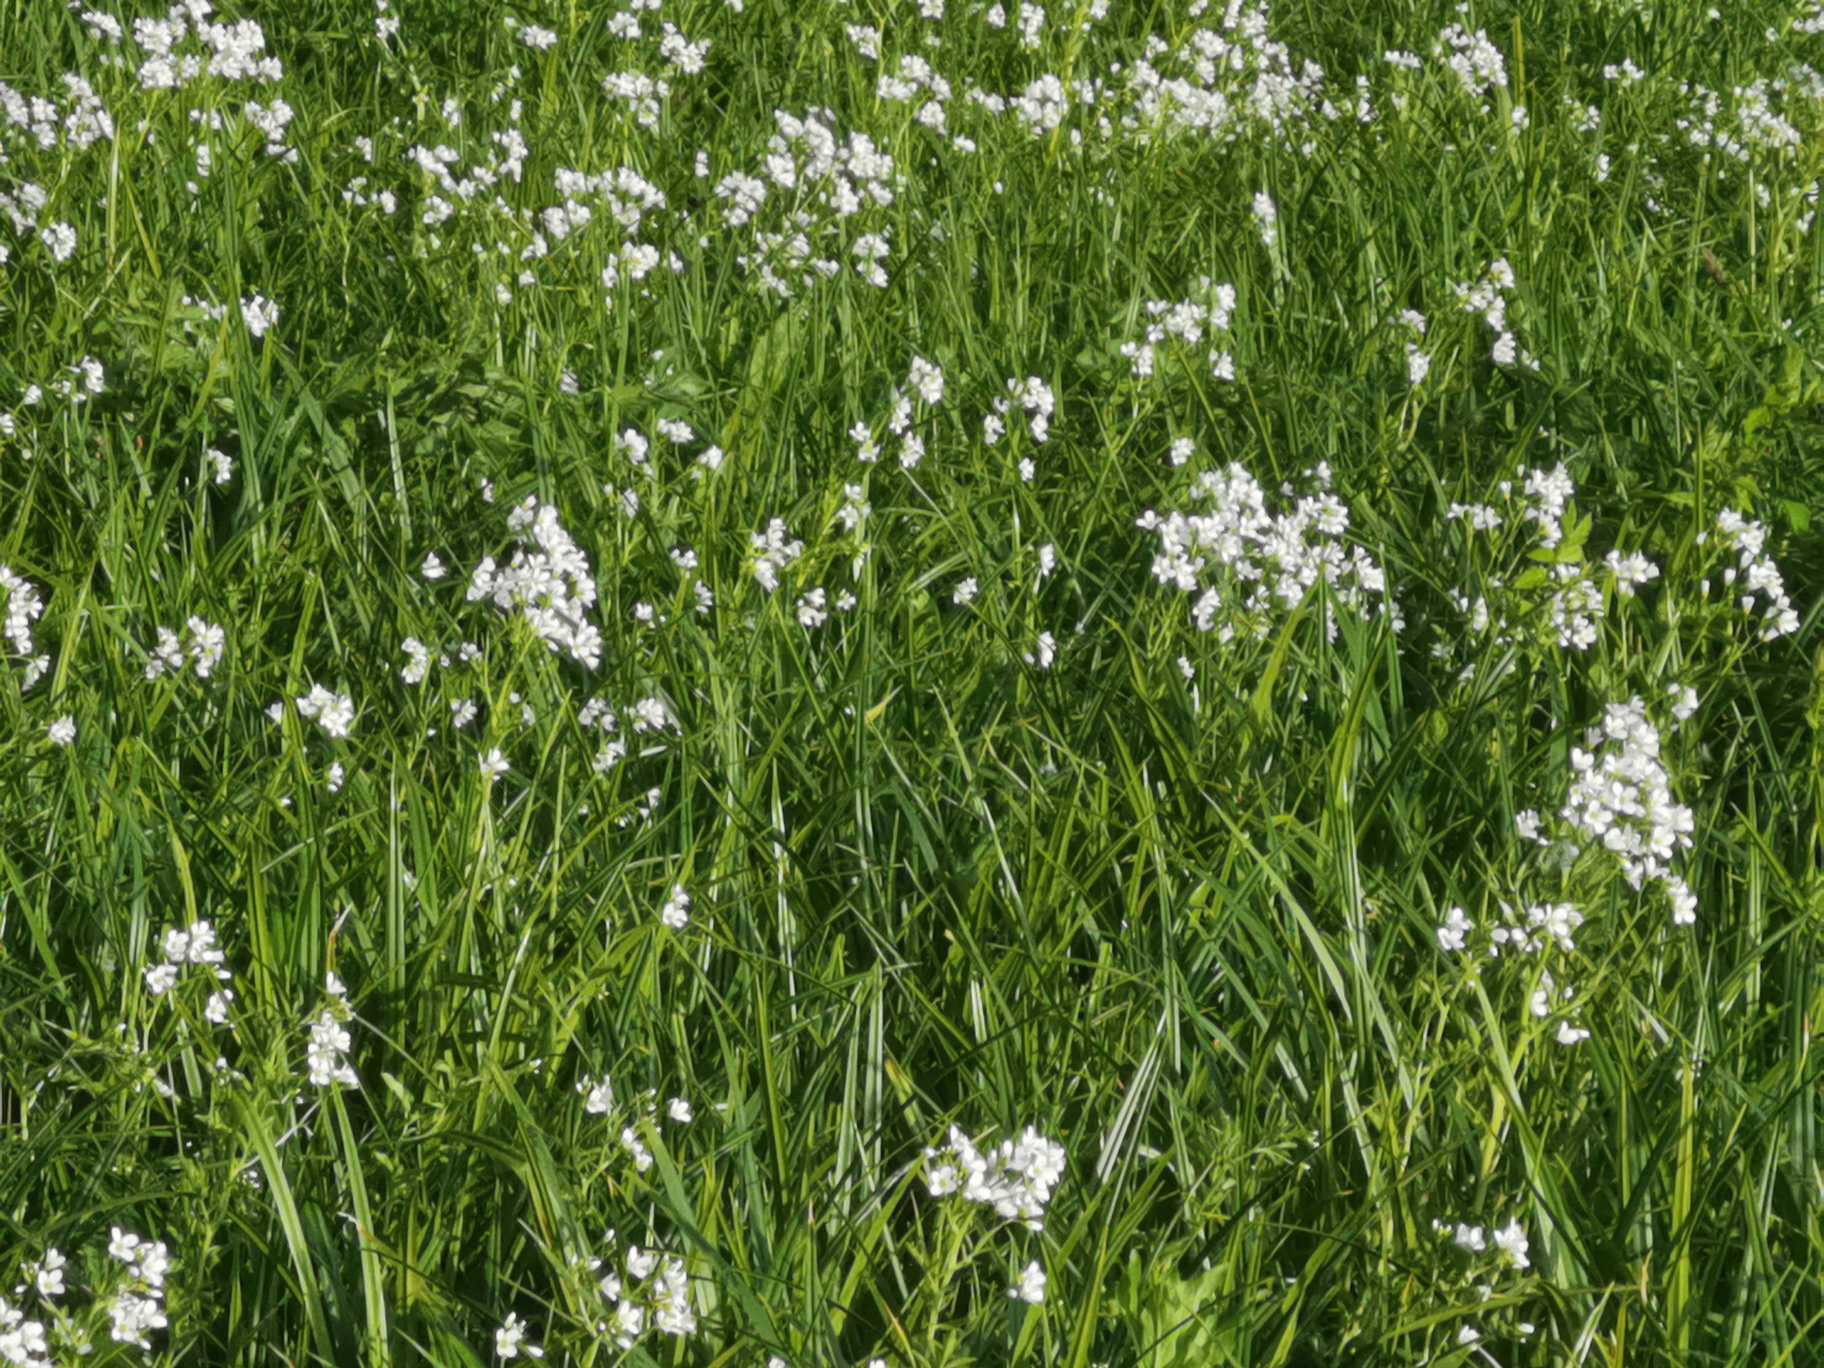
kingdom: Plantae
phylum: Tracheophyta
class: Magnoliopsida
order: Brassicales
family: Brassicaceae
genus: Cardamine
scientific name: Cardamine amara
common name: Vandkarse
